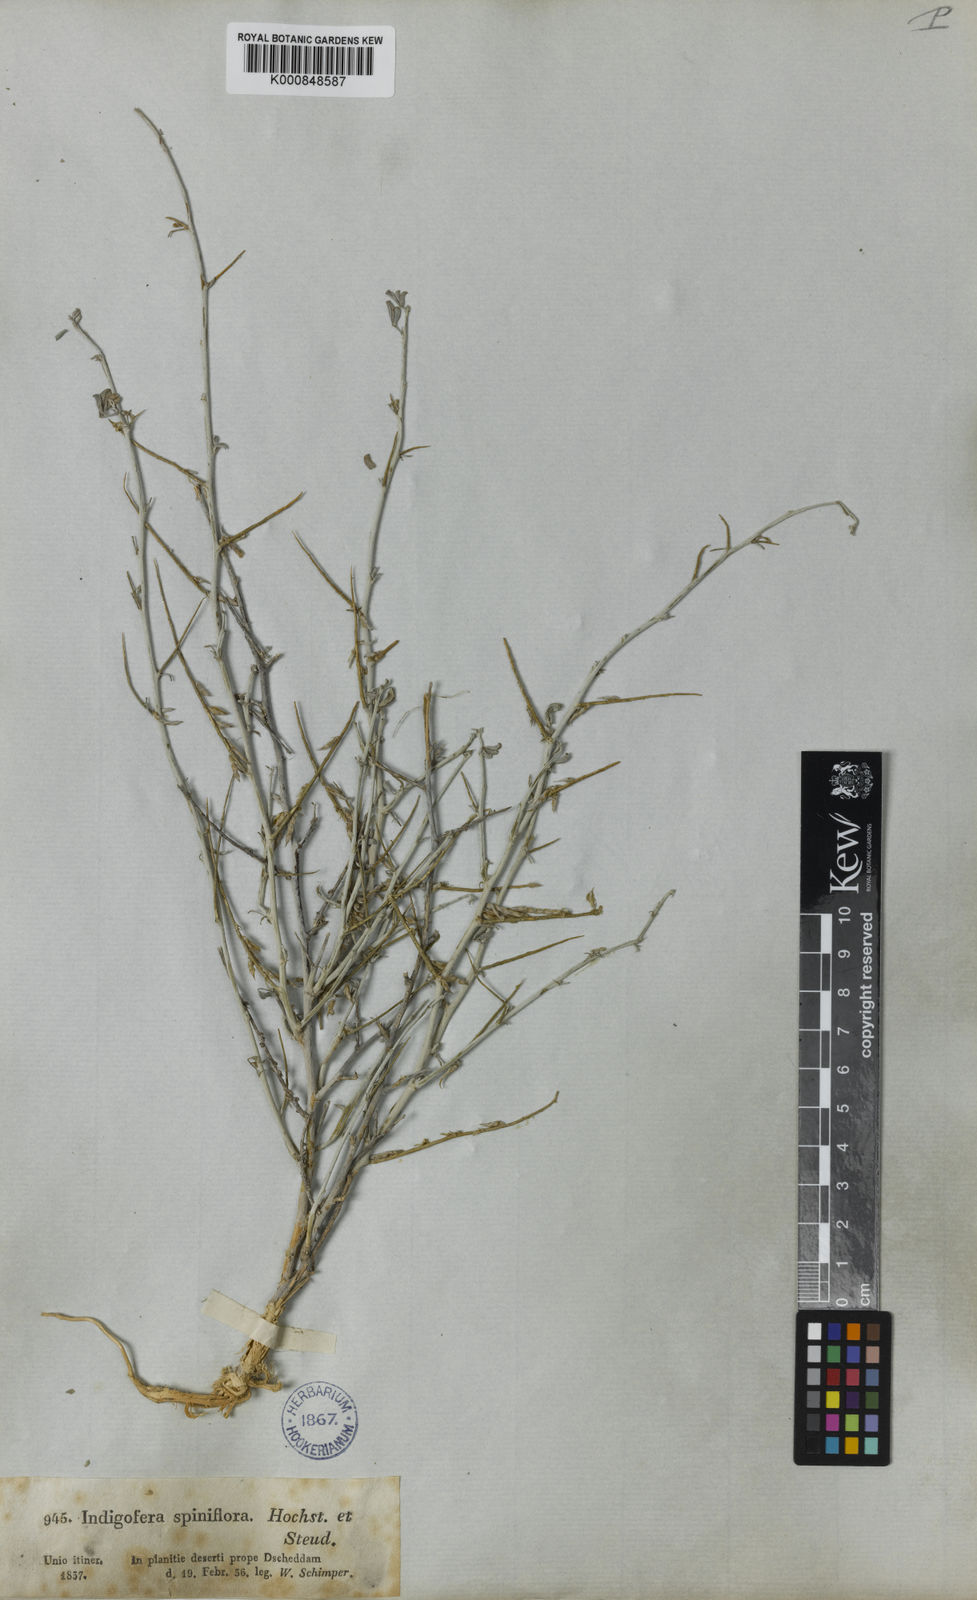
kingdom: Plantae
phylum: Tracheophyta
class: Magnoliopsida
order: Fabales
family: Fabaceae
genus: Indigofera
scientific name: Indigofera spiniflora
